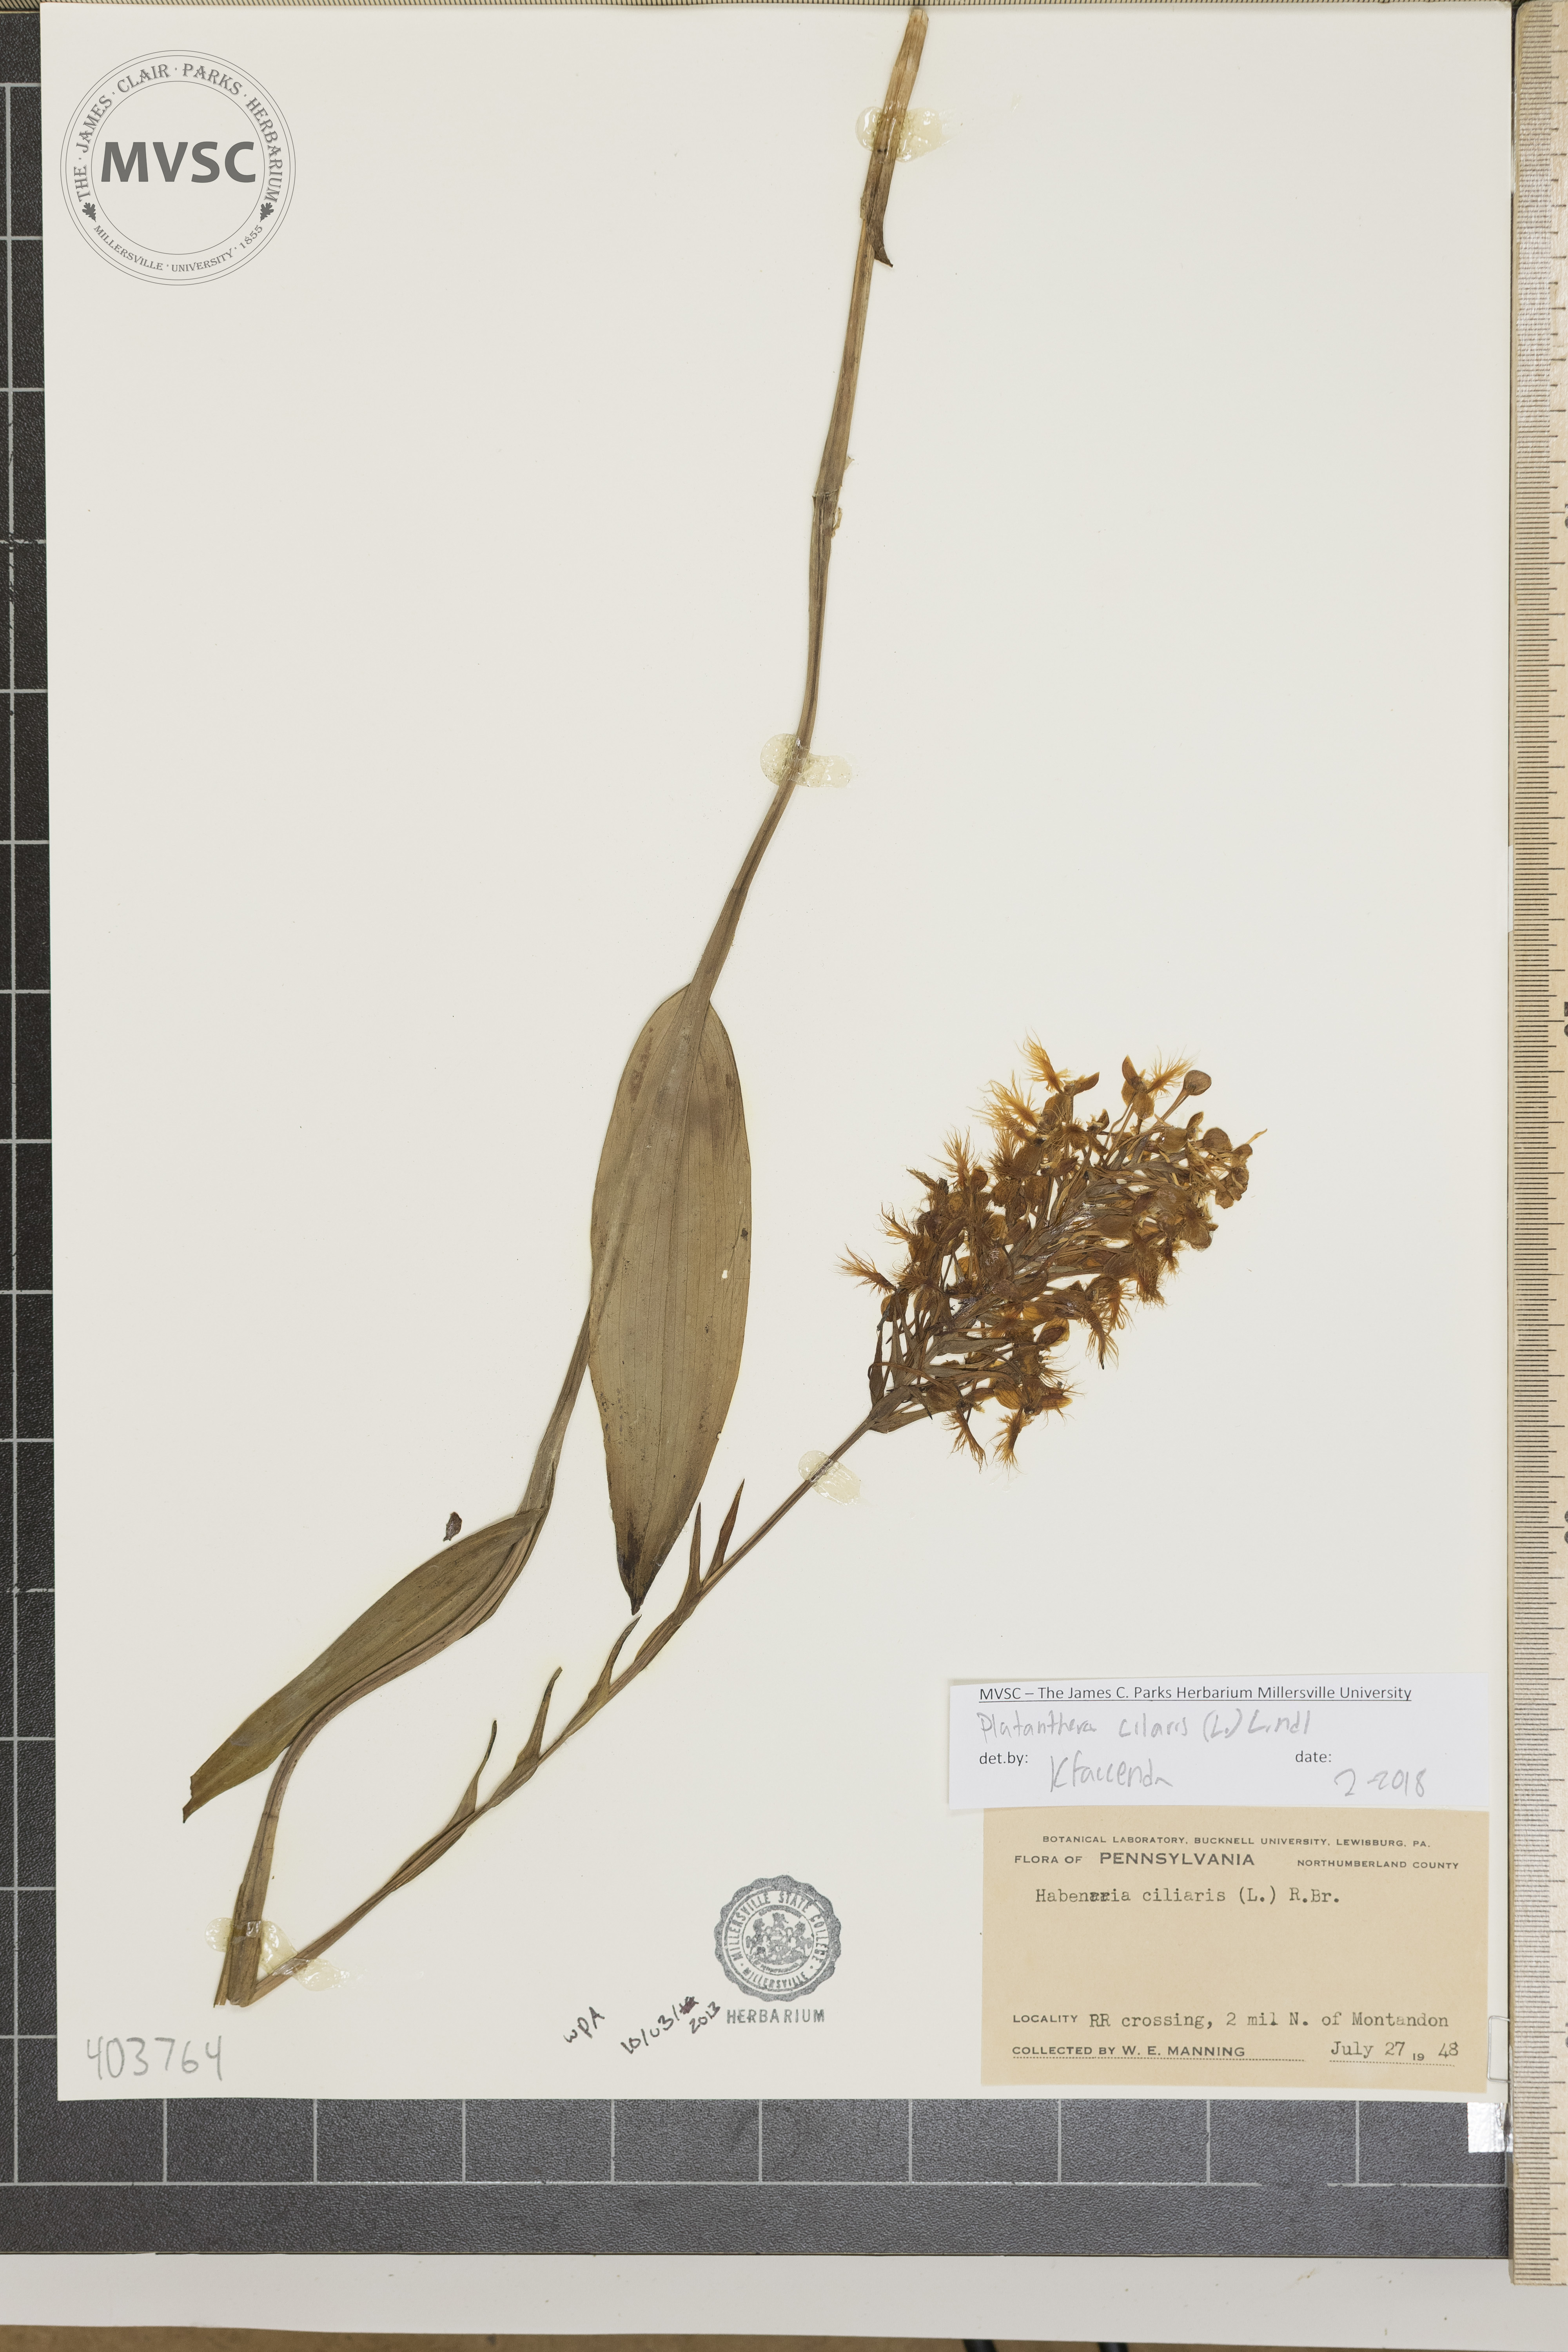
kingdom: Plantae
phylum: Tracheophyta
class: Liliopsida
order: Asparagales
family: Orchidaceae
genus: Platanthera
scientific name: Platanthera ciliaris
